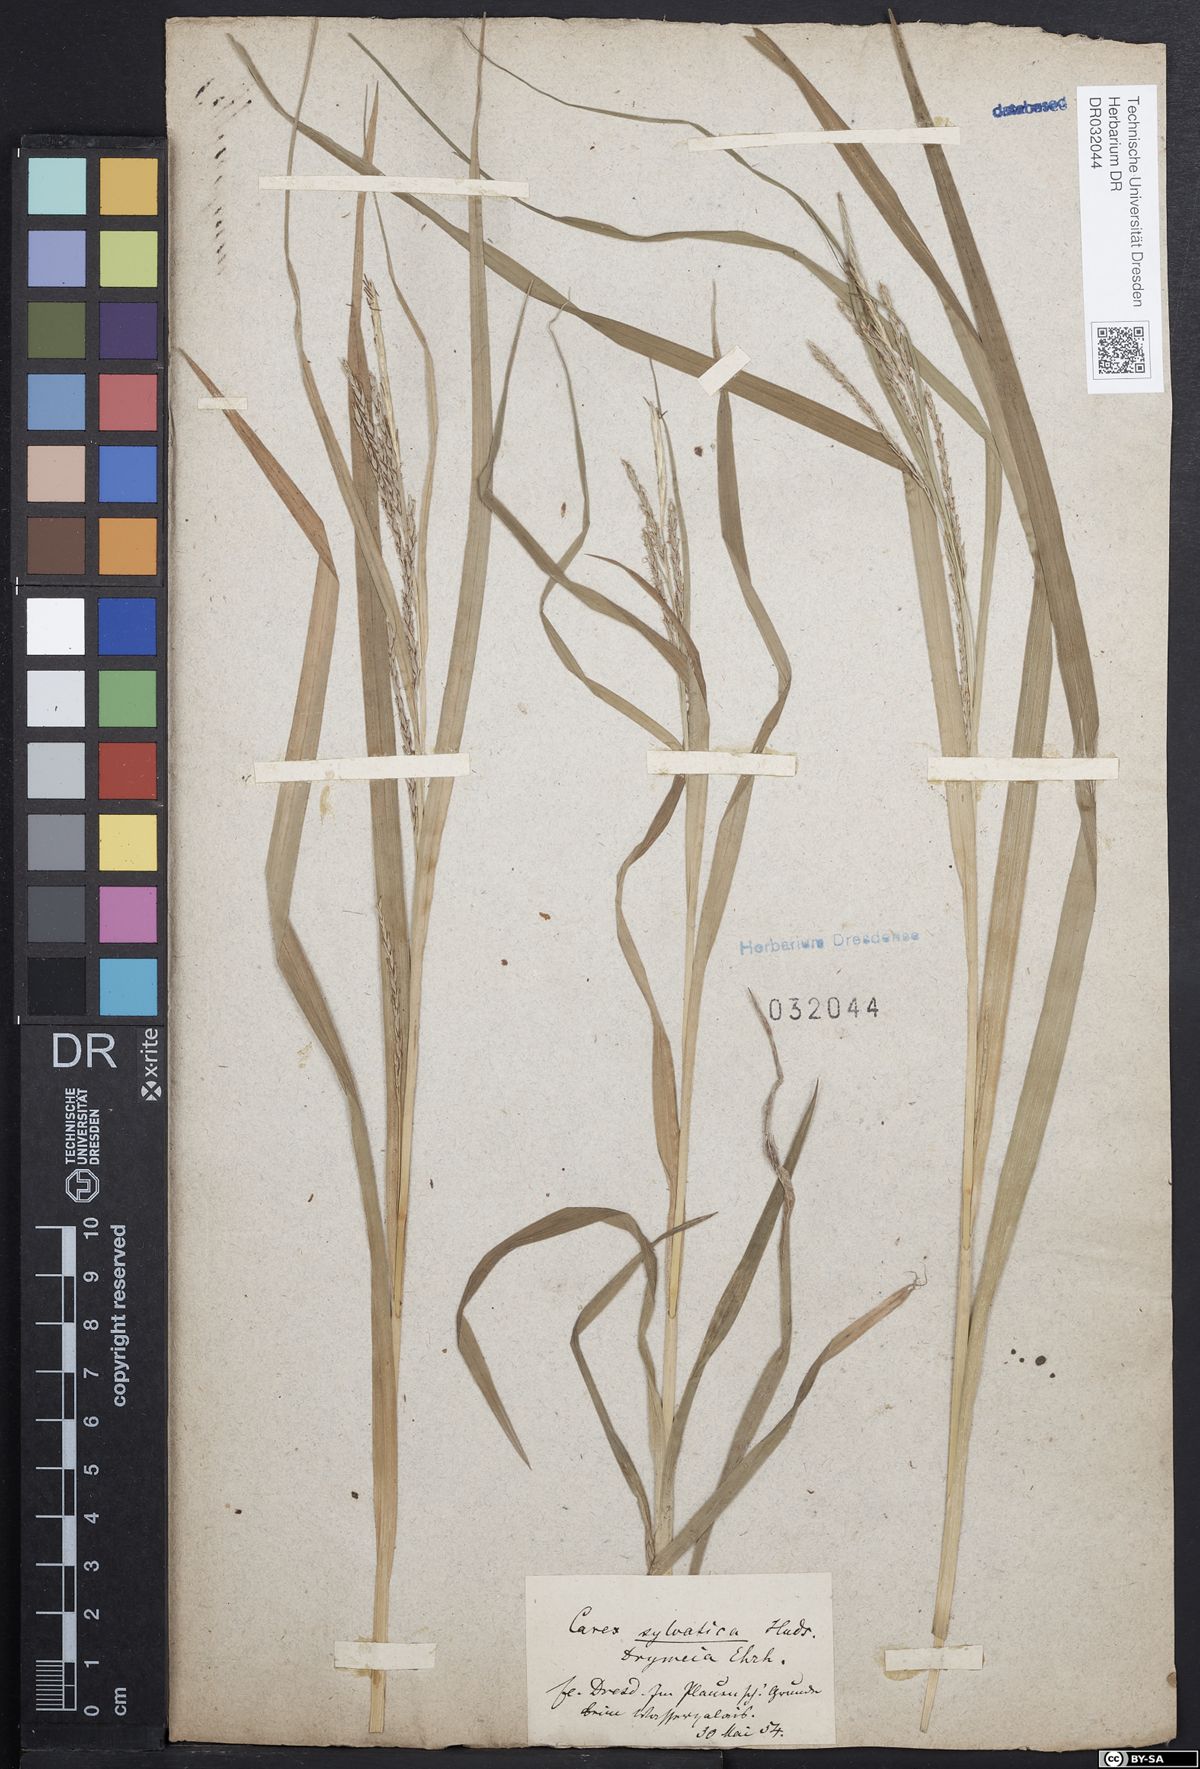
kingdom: Plantae
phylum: Tracheophyta
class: Liliopsida
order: Poales
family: Cyperaceae
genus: Carex
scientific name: Carex sylvatica
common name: Wood-sedge
